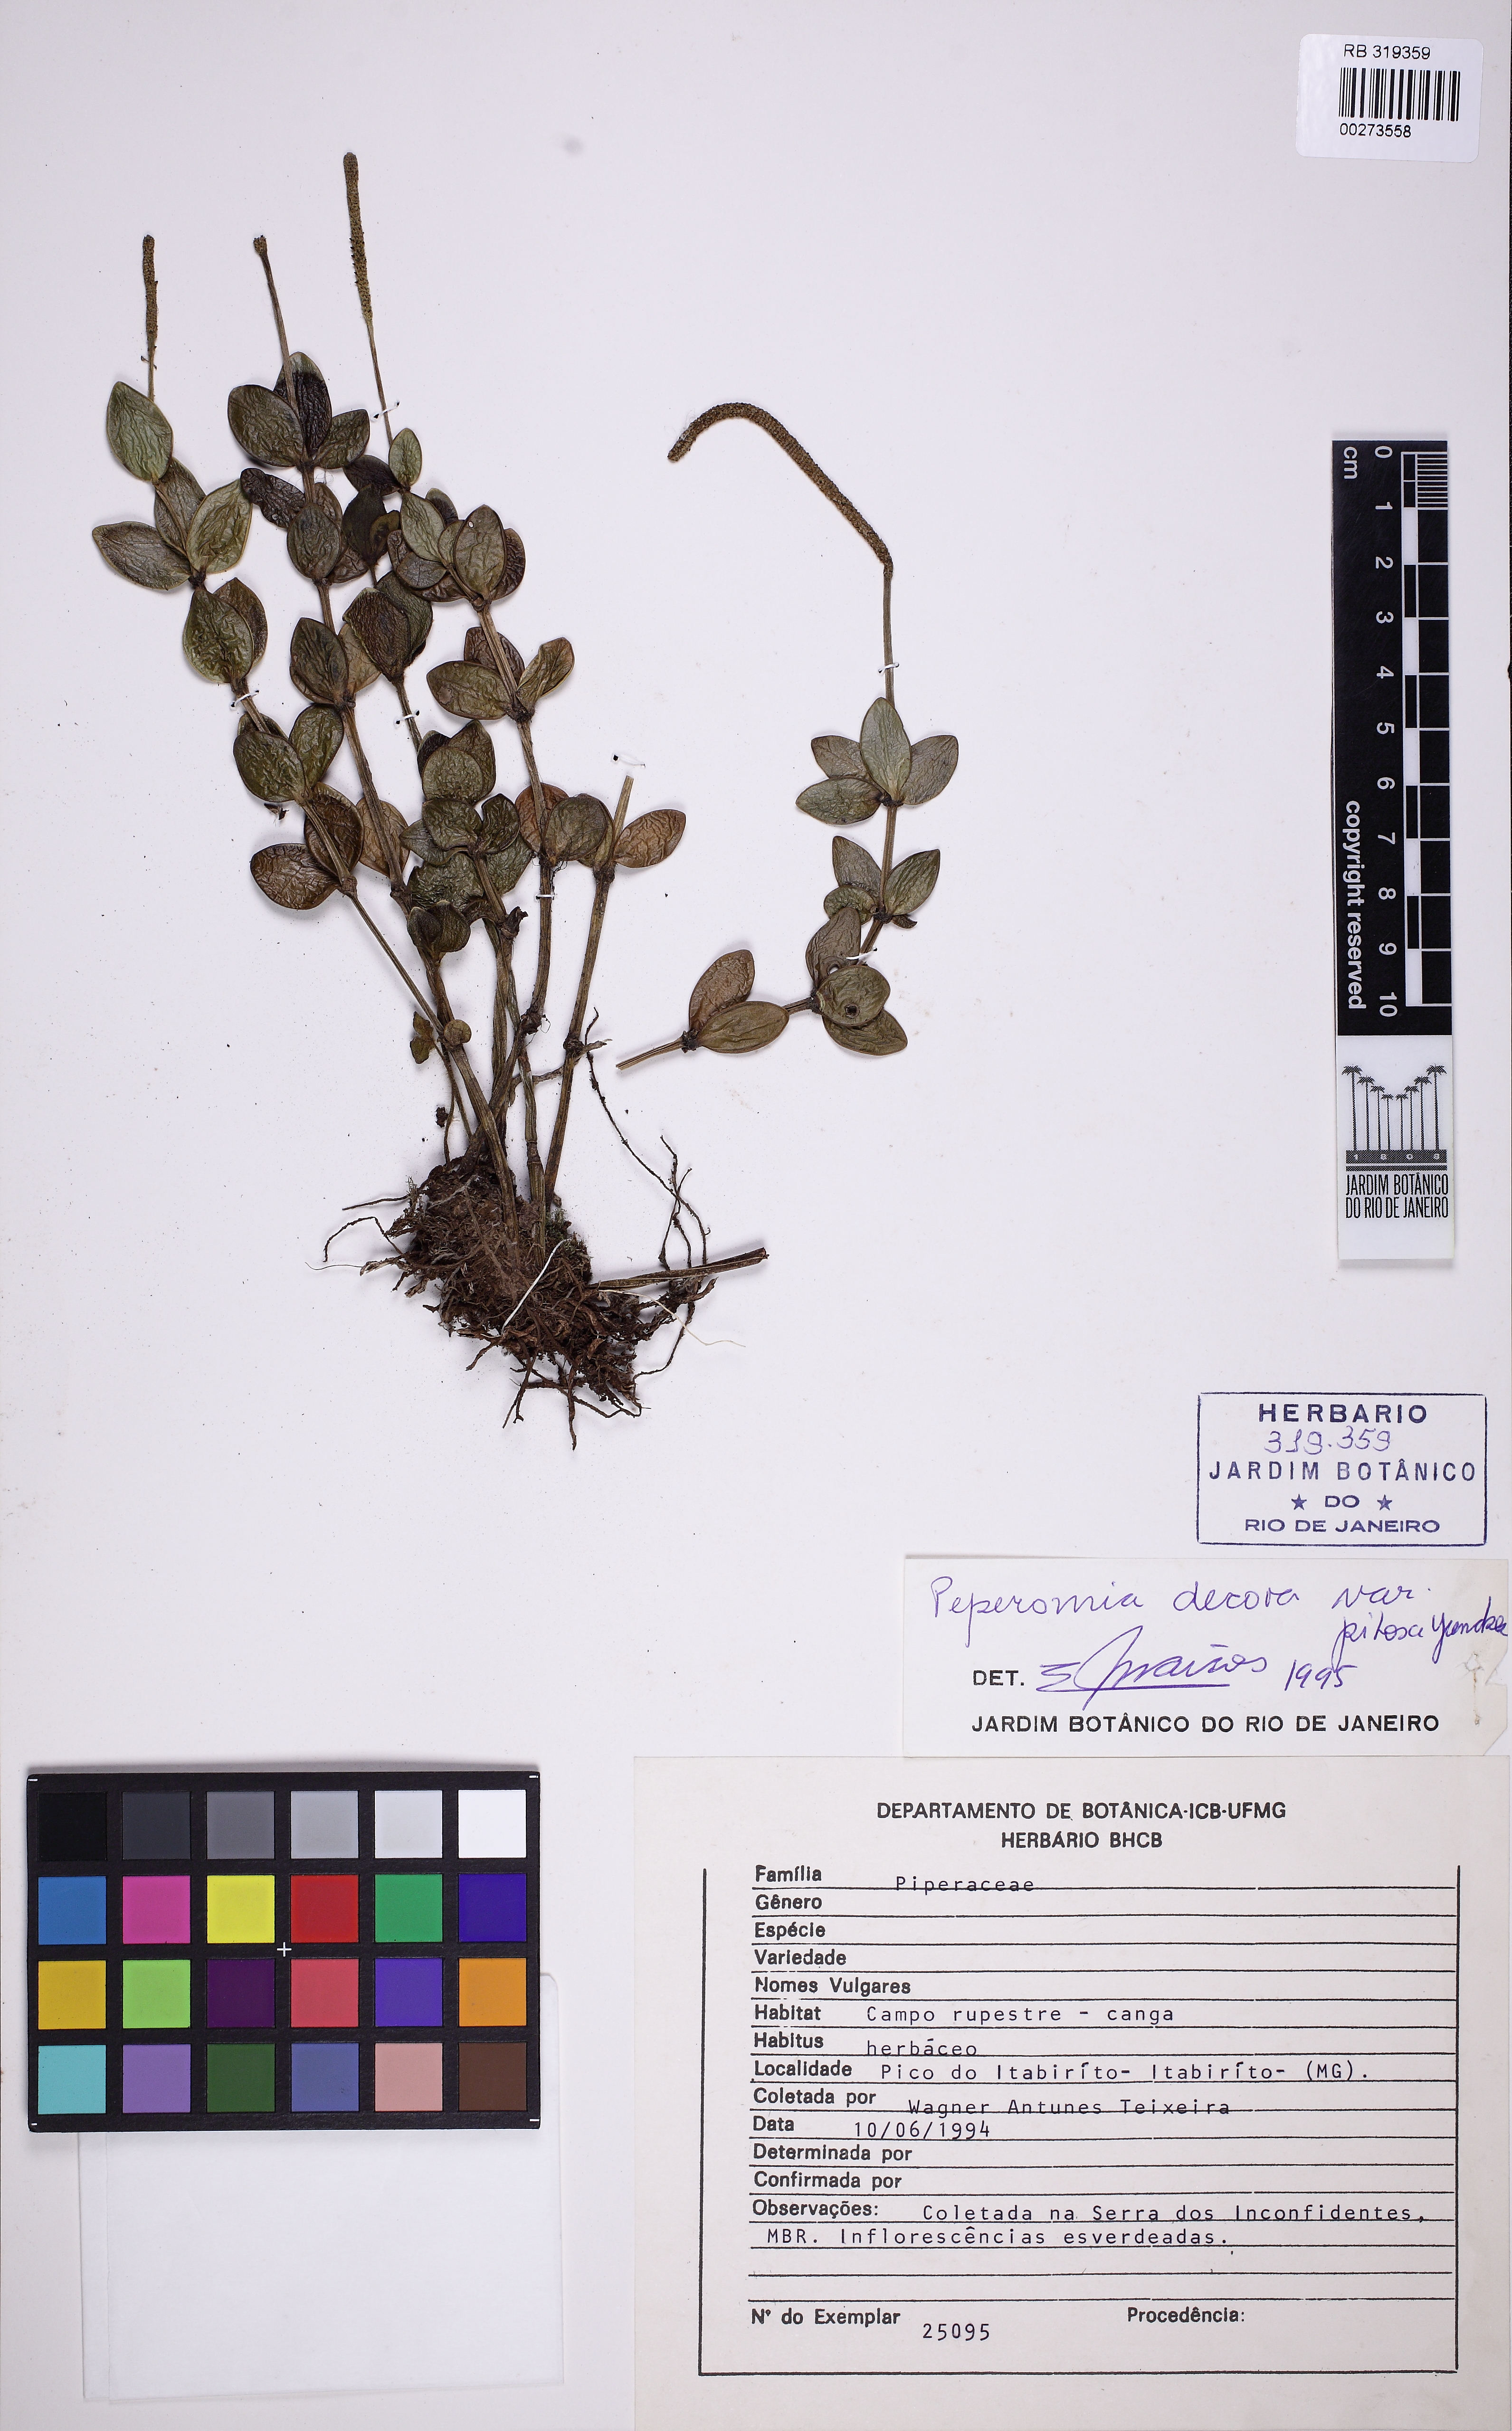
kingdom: Plantae
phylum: Tracheophyta
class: Magnoliopsida
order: Piperales
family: Piperaceae
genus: Peperomia
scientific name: Peperomia decora
